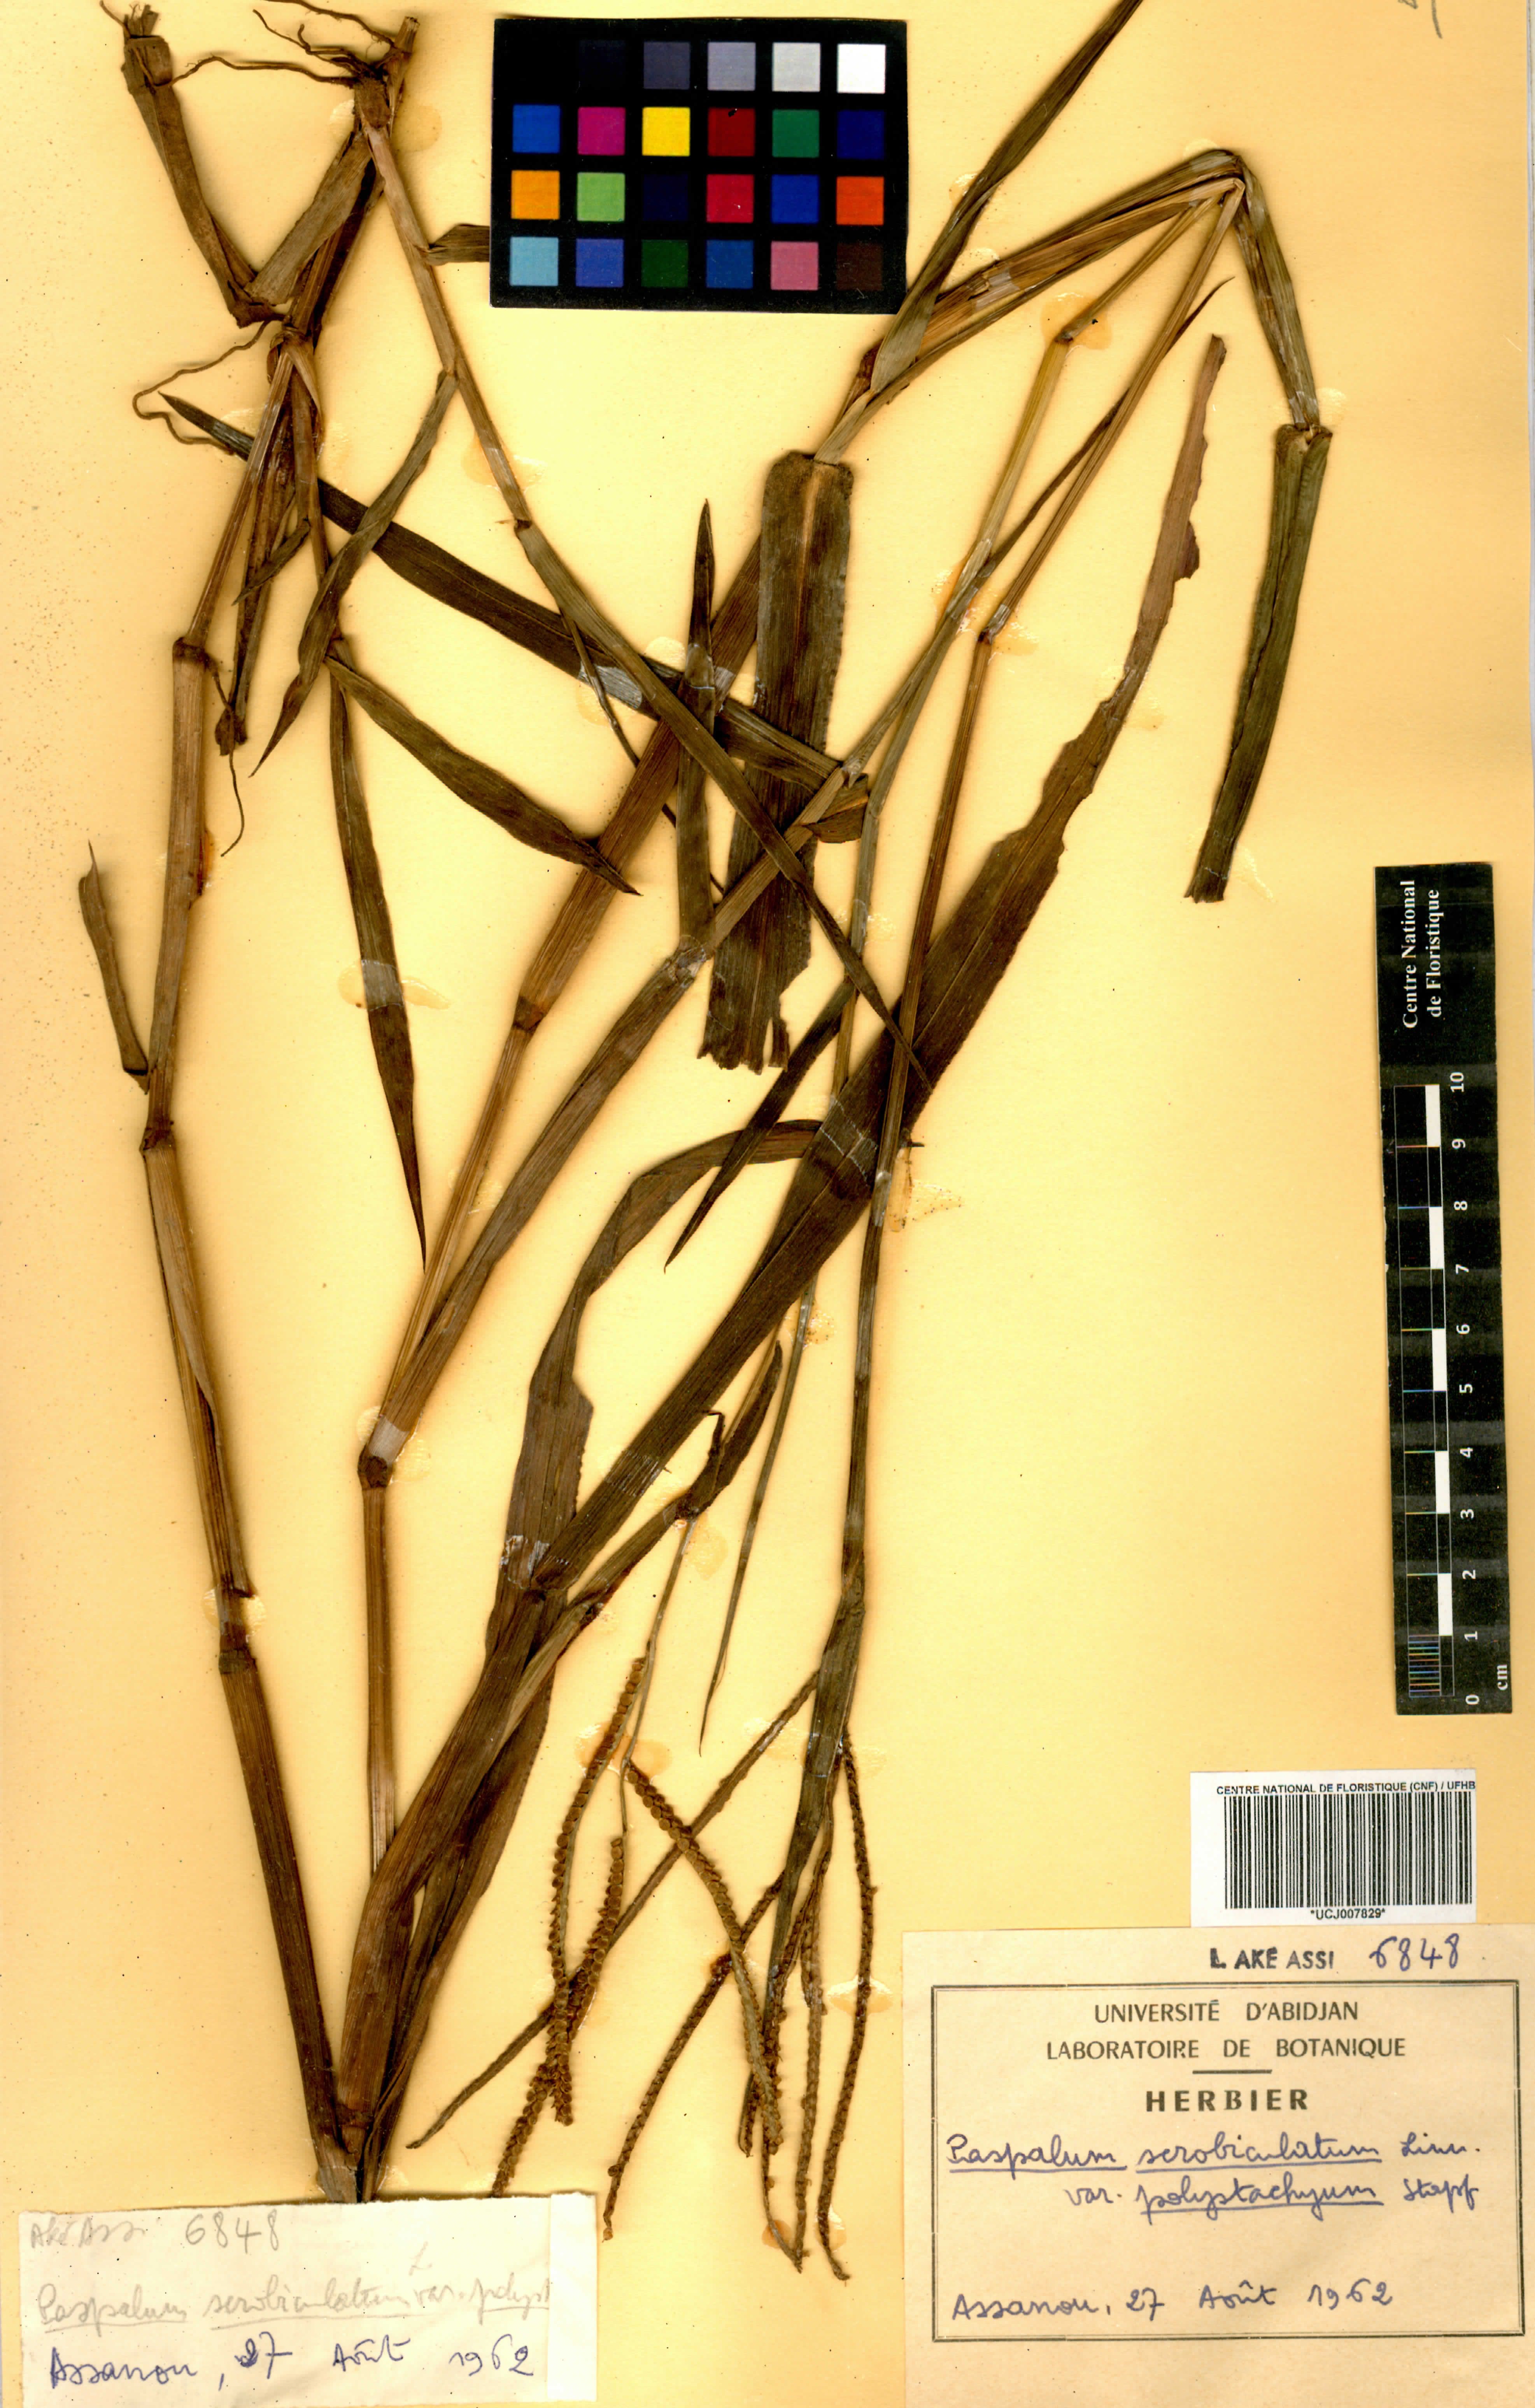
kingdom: Plantae
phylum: Tracheophyta
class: Liliopsida
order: Poales
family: Poaceae
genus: Paspalum
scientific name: Paspalum scrobiculatum
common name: Kodo millet
